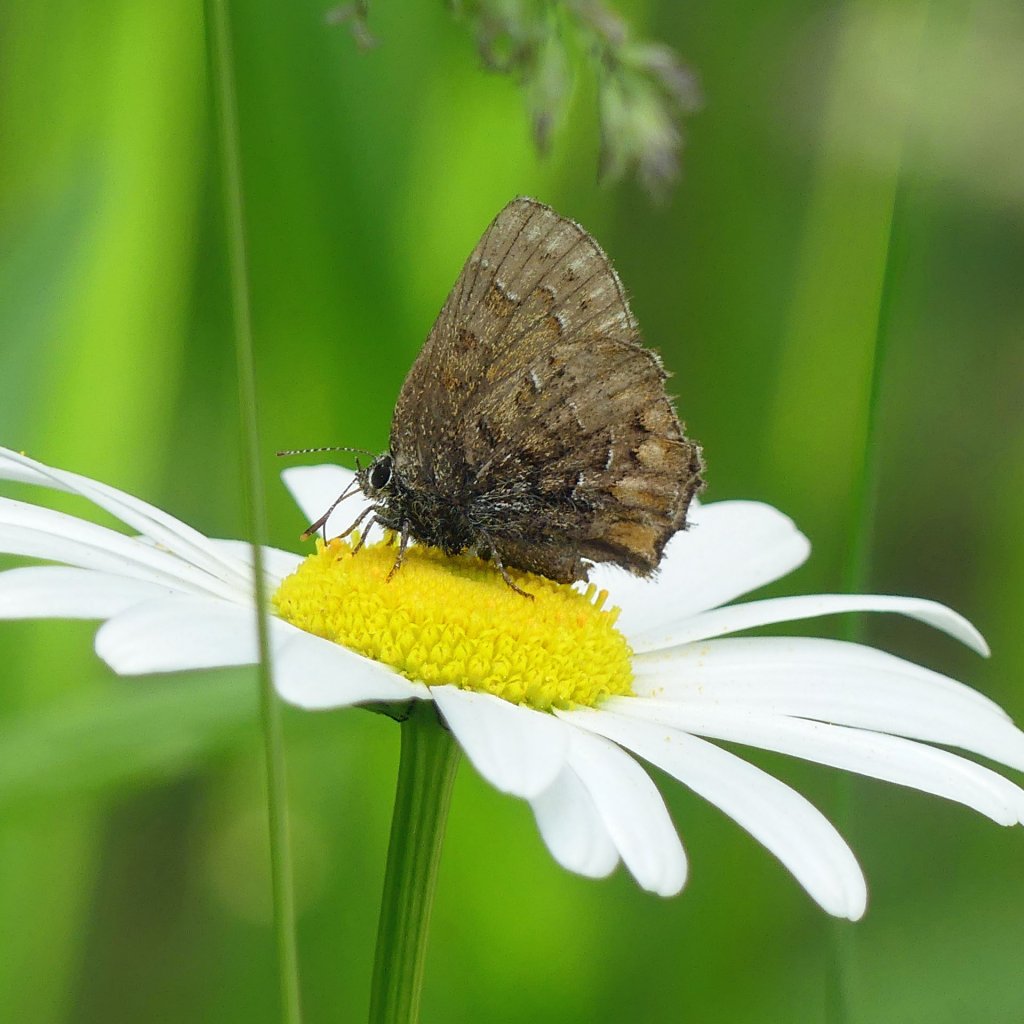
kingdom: Animalia
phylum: Arthropoda
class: Insecta
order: Lepidoptera
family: Lycaenidae
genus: Incisalia
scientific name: Incisalia niphon
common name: Eastern Pine Elfin
